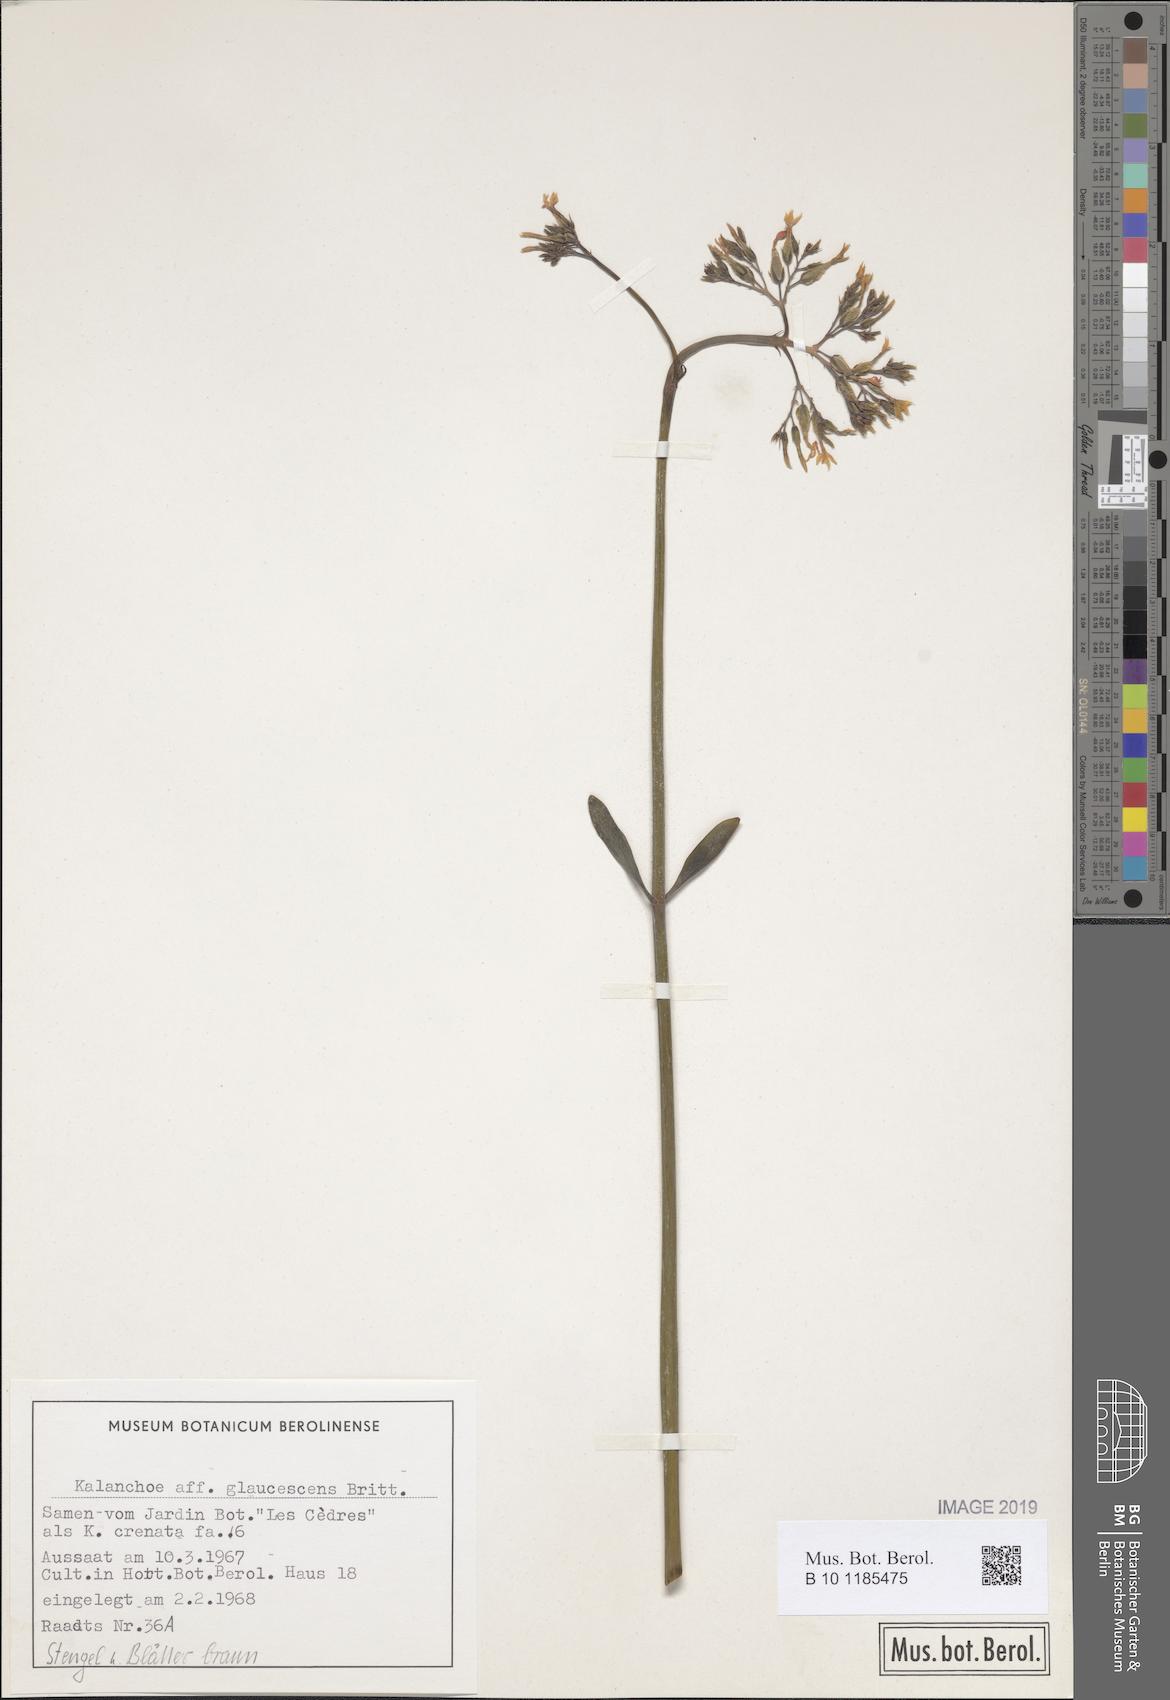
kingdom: Plantae
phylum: Tracheophyta
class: Magnoliopsida
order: Saxifragales
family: Crassulaceae
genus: Kalanchoe
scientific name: Kalanchoe glaucescens
